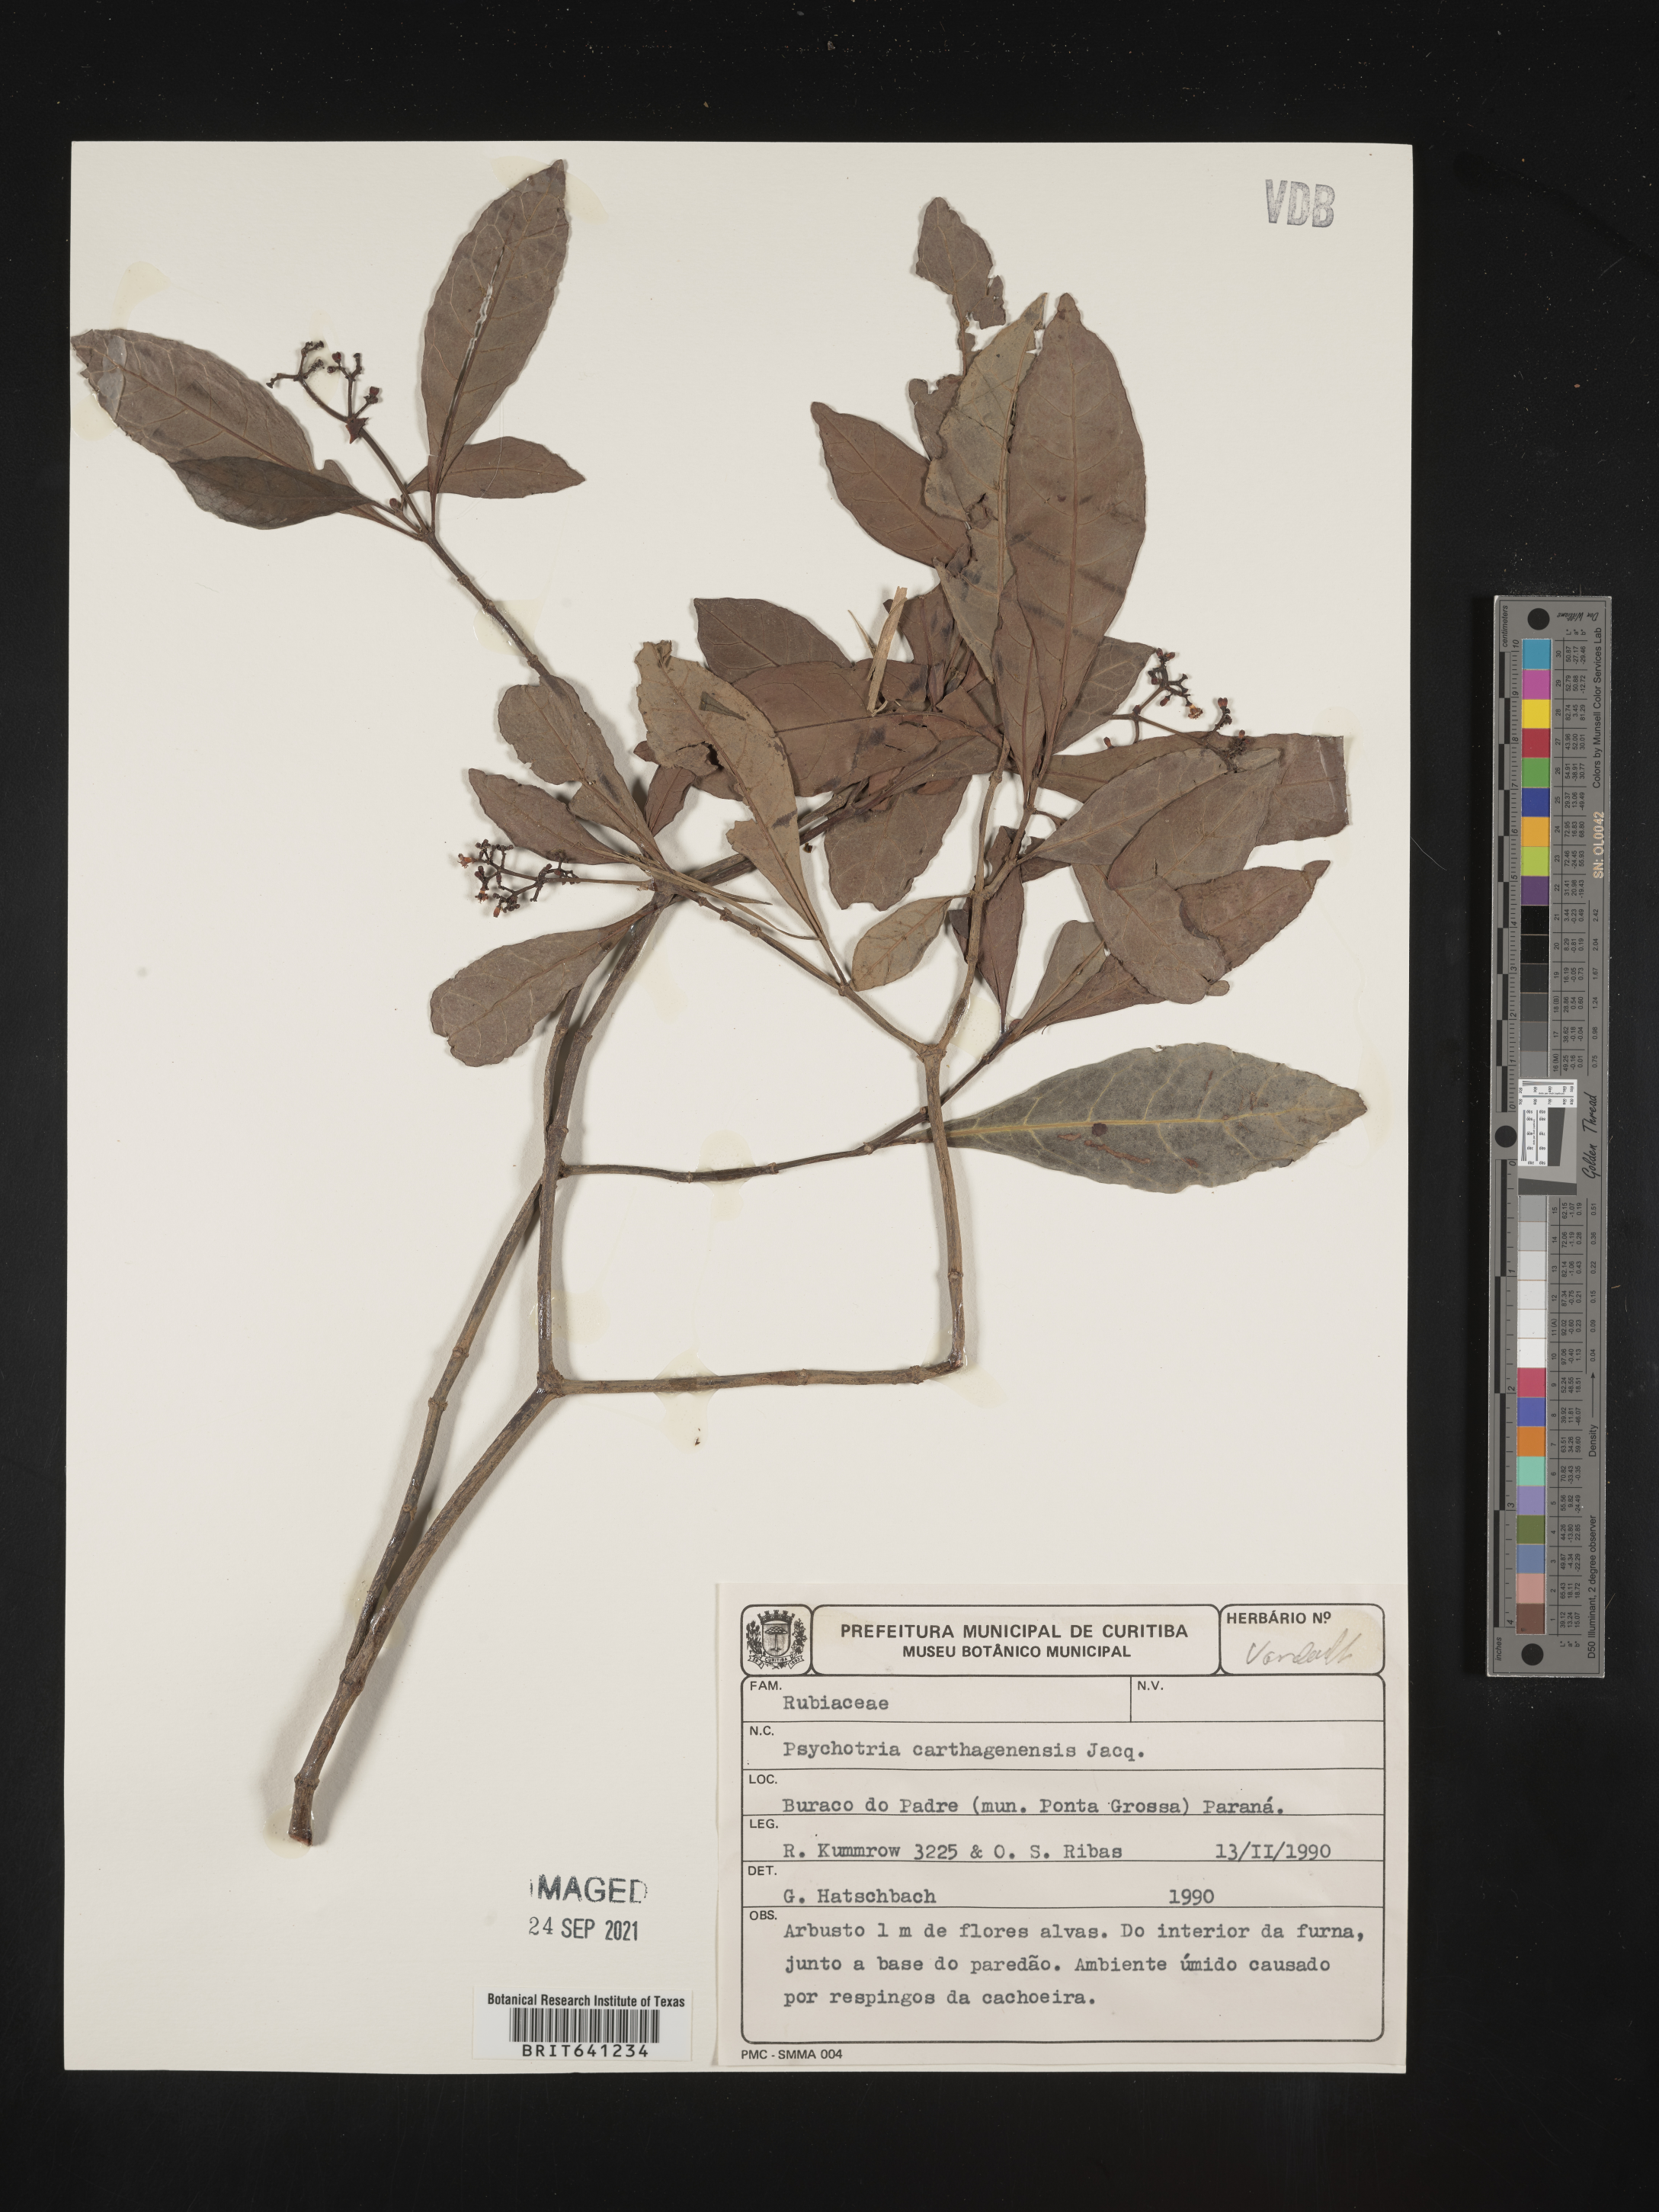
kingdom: Plantae
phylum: Tracheophyta
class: Magnoliopsida
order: Gentianales
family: Rubiaceae
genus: Psychotria
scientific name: Psychotria
